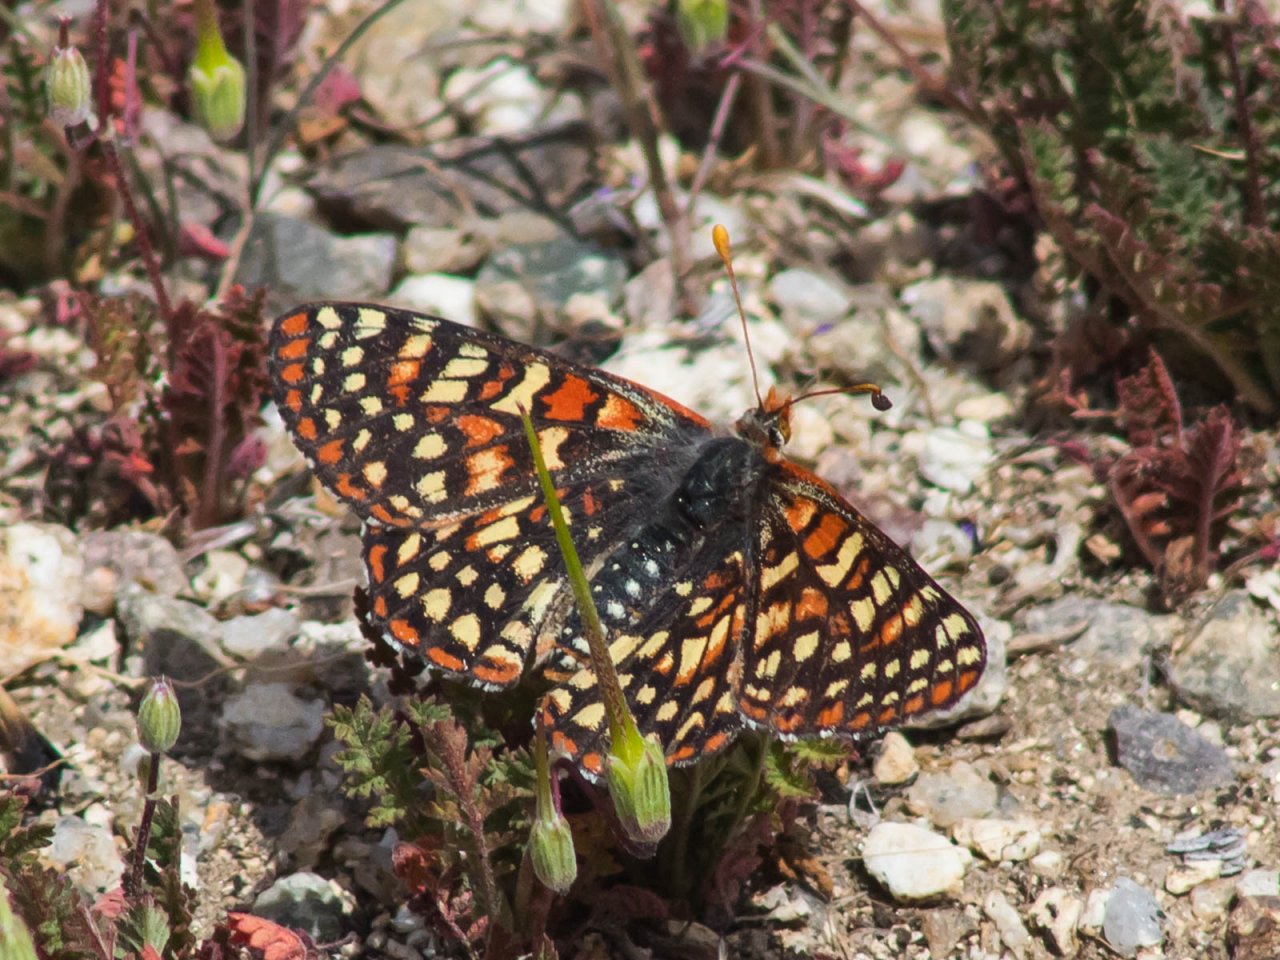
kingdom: Animalia
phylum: Arthropoda
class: Insecta
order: Lepidoptera
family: Nymphalidae
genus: Occidryas
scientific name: Occidryas chalcedona
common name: Chalcedon Checkerspot
